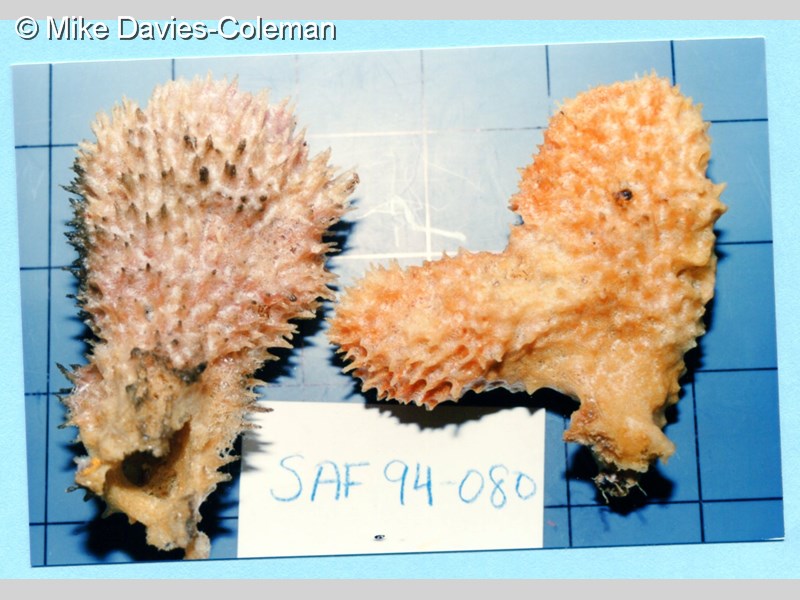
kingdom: Animalia
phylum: Porifera
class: Demospongiae
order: Haplosclerida
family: Callyspongiidae
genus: Callyspongia
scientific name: Callyspongia confoederata
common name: Spiky tube sponge
